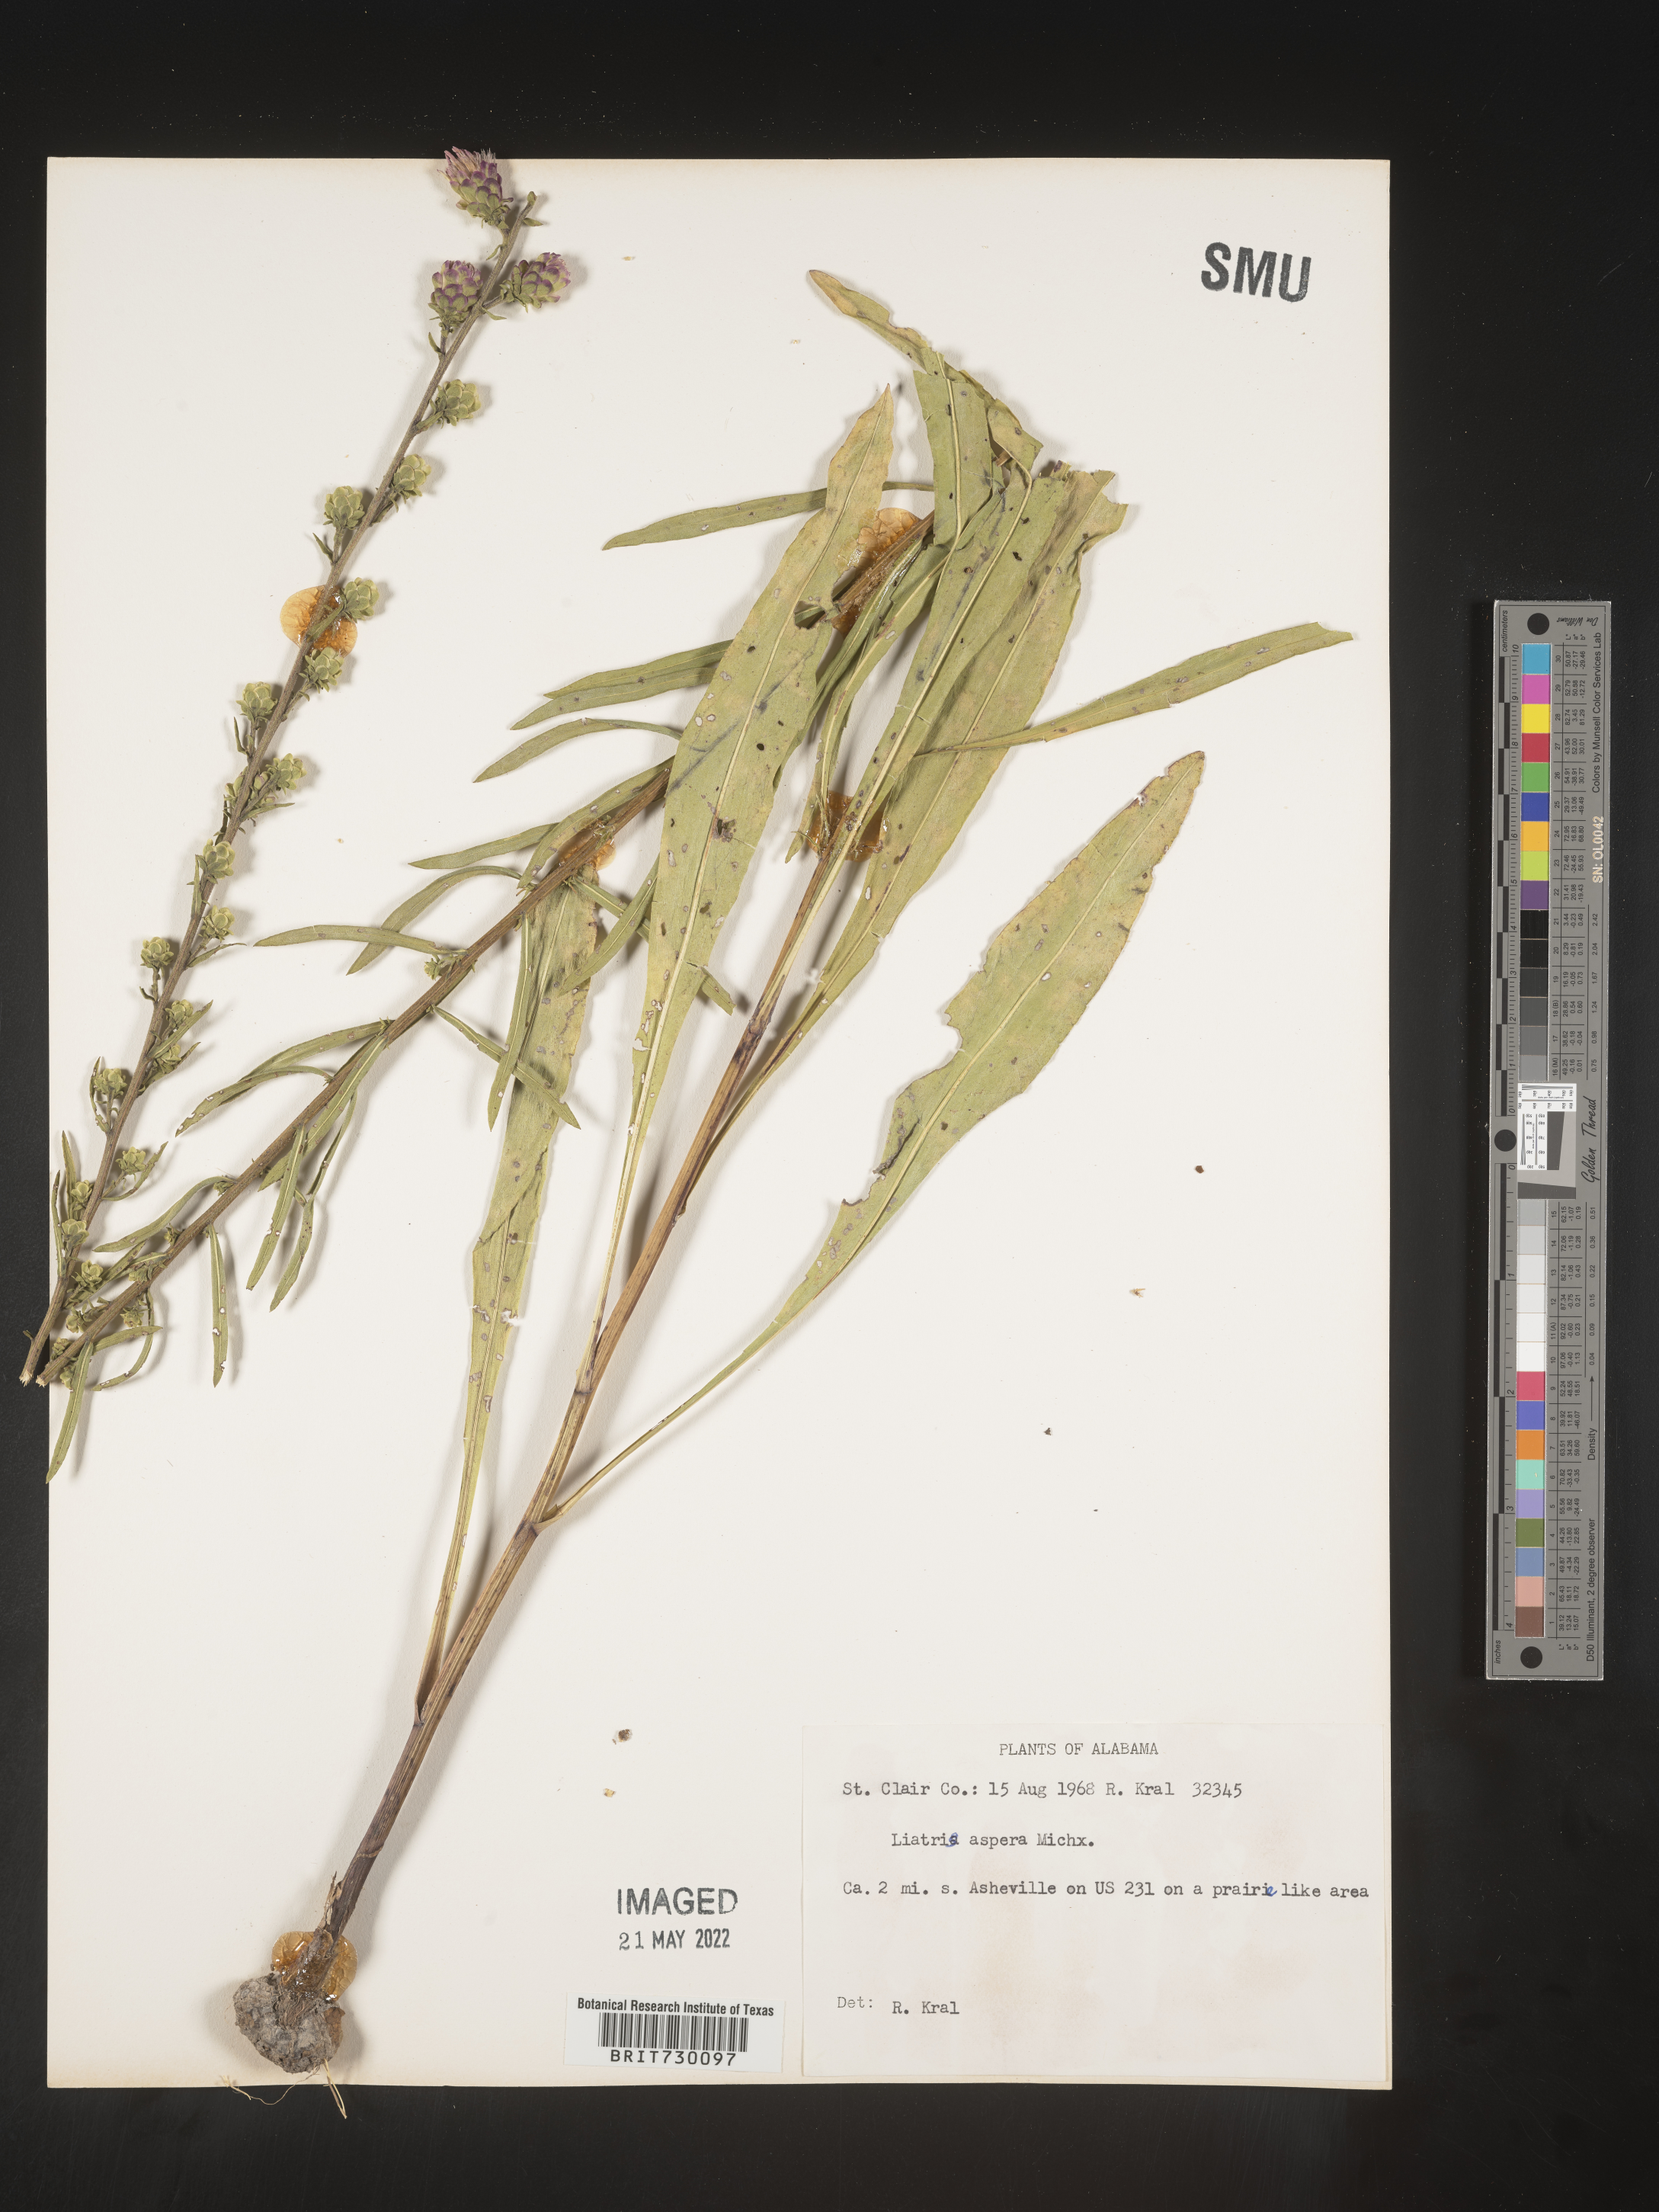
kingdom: Plantae
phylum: Tracheophyta
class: Magnoliopsida
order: Asterales
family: Asteraceae
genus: Liatris
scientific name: Liatris aspera
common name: Lacerate blazing-star
